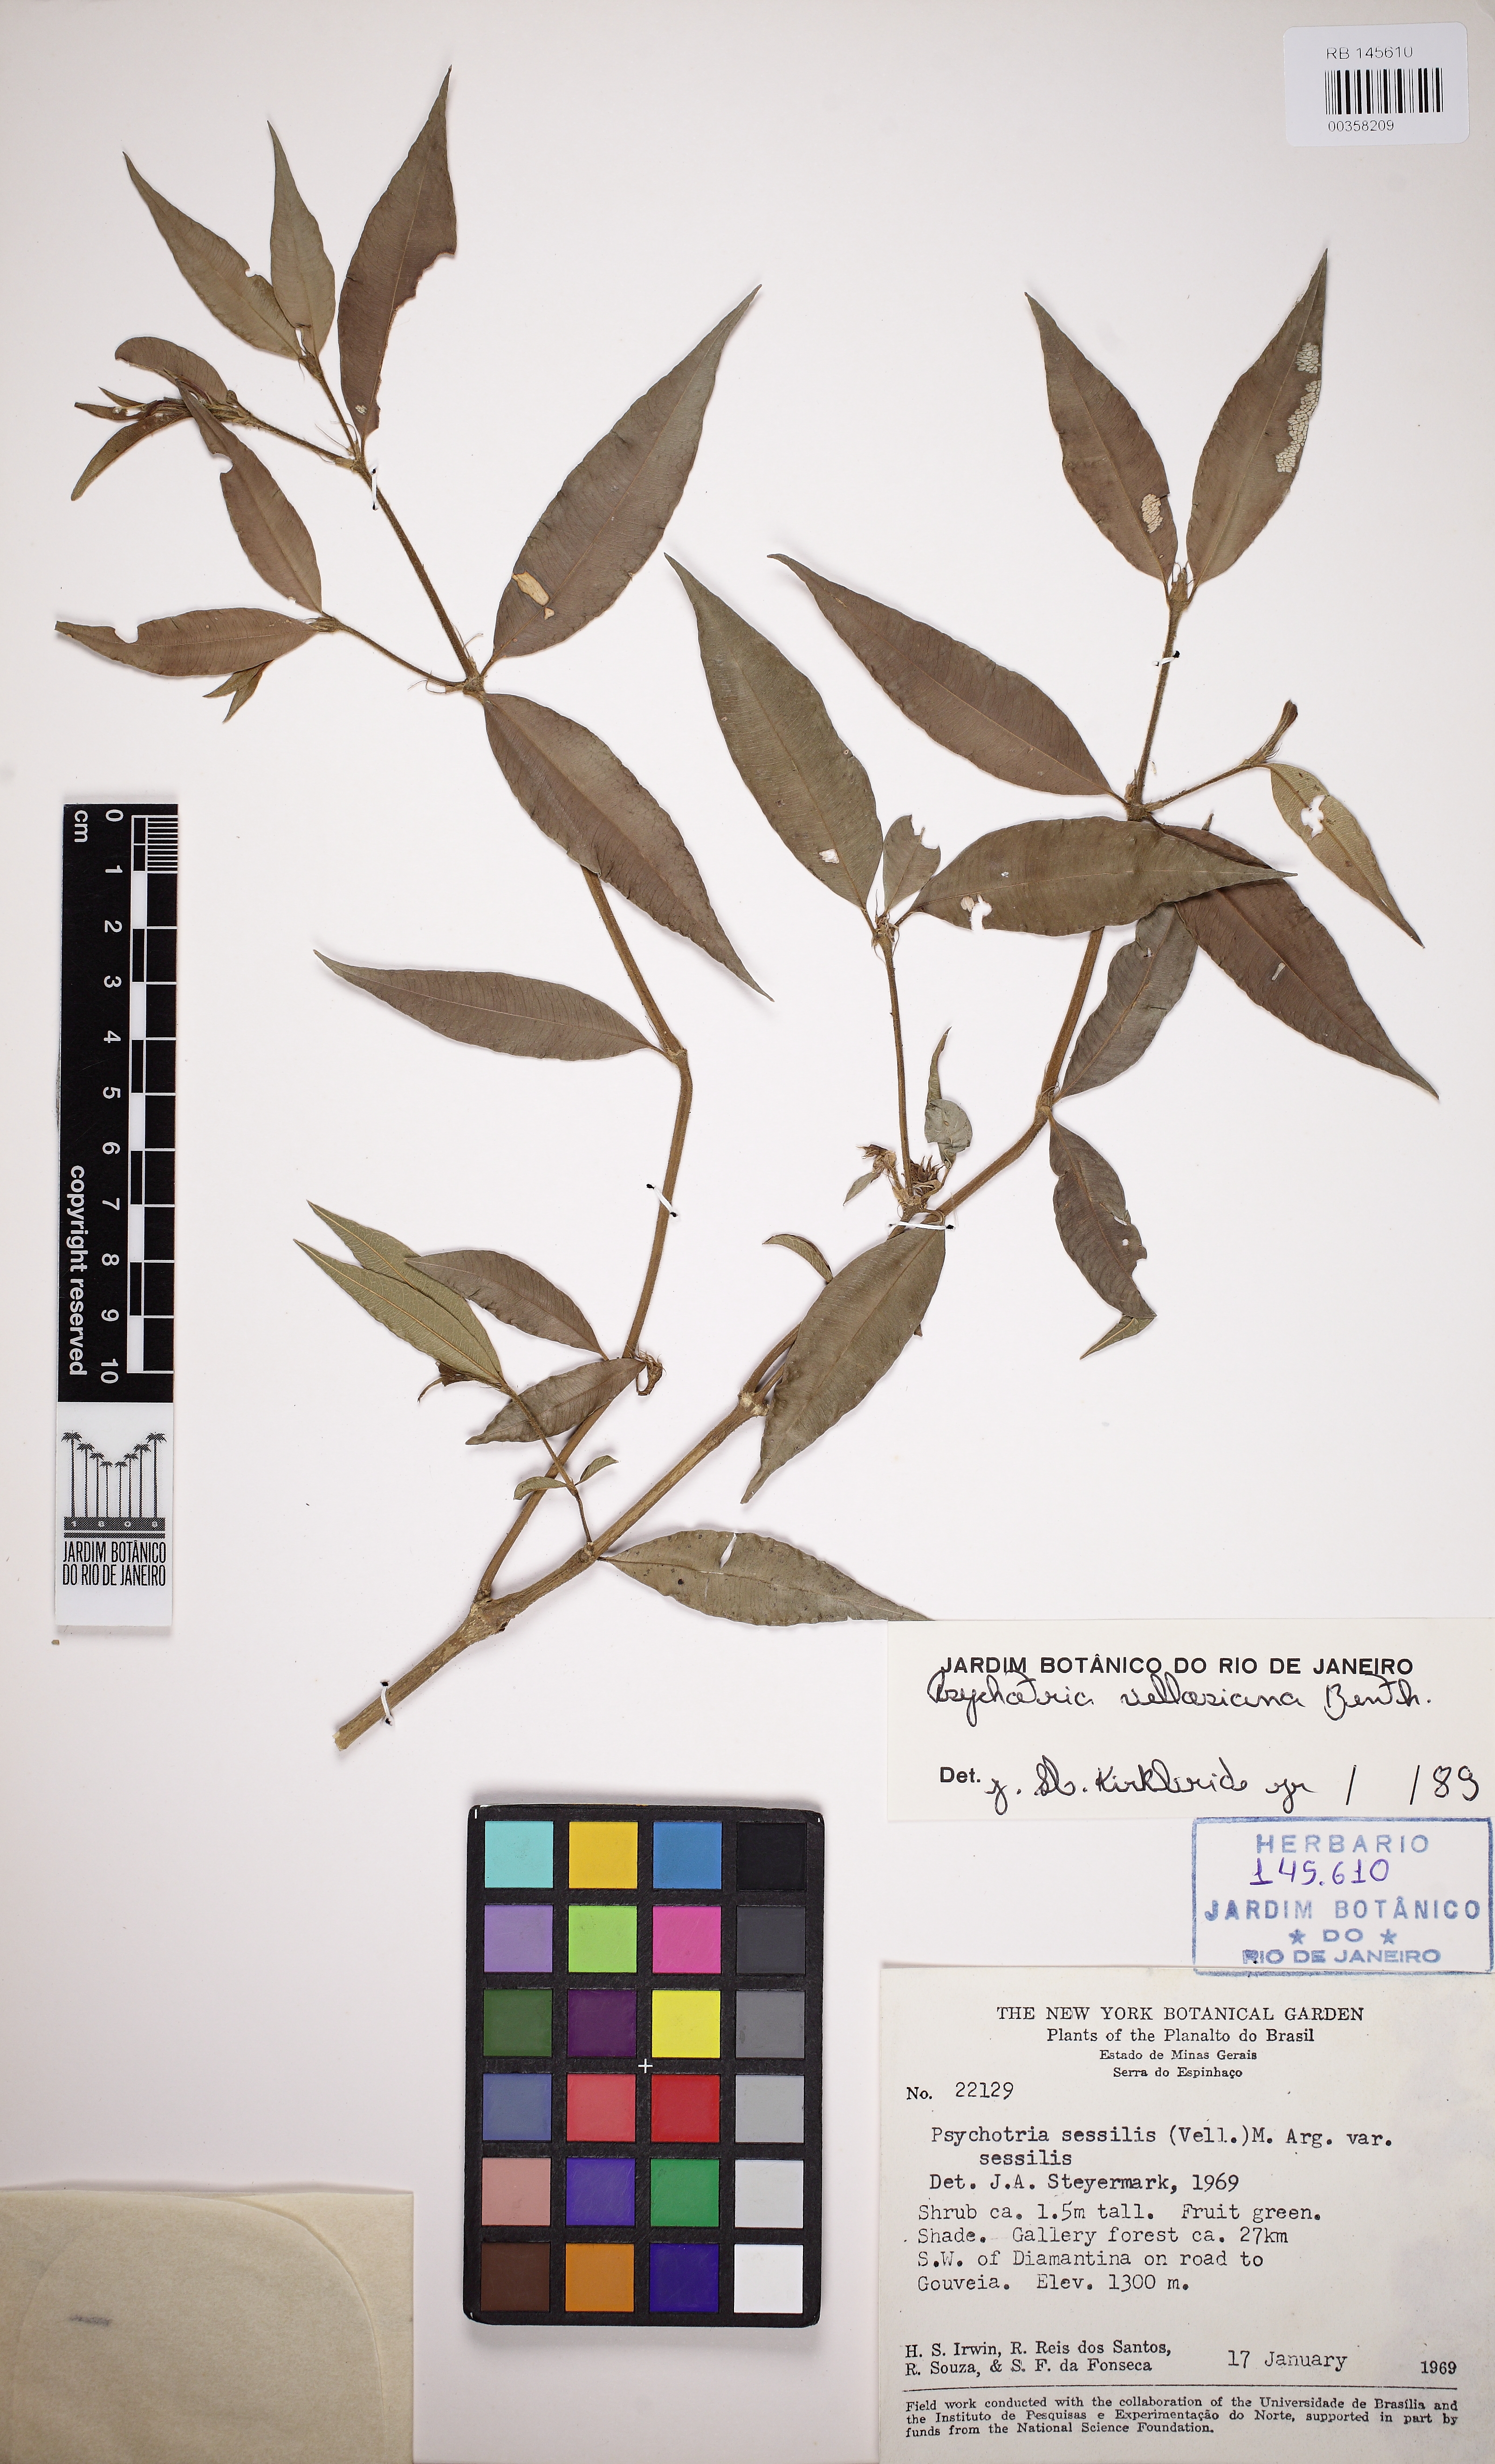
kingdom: Plantae
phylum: Tracheophyta
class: Magnoliopsida
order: Gentianales
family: Rubiaceae
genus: Palicourea
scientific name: Palicourea sessilis
